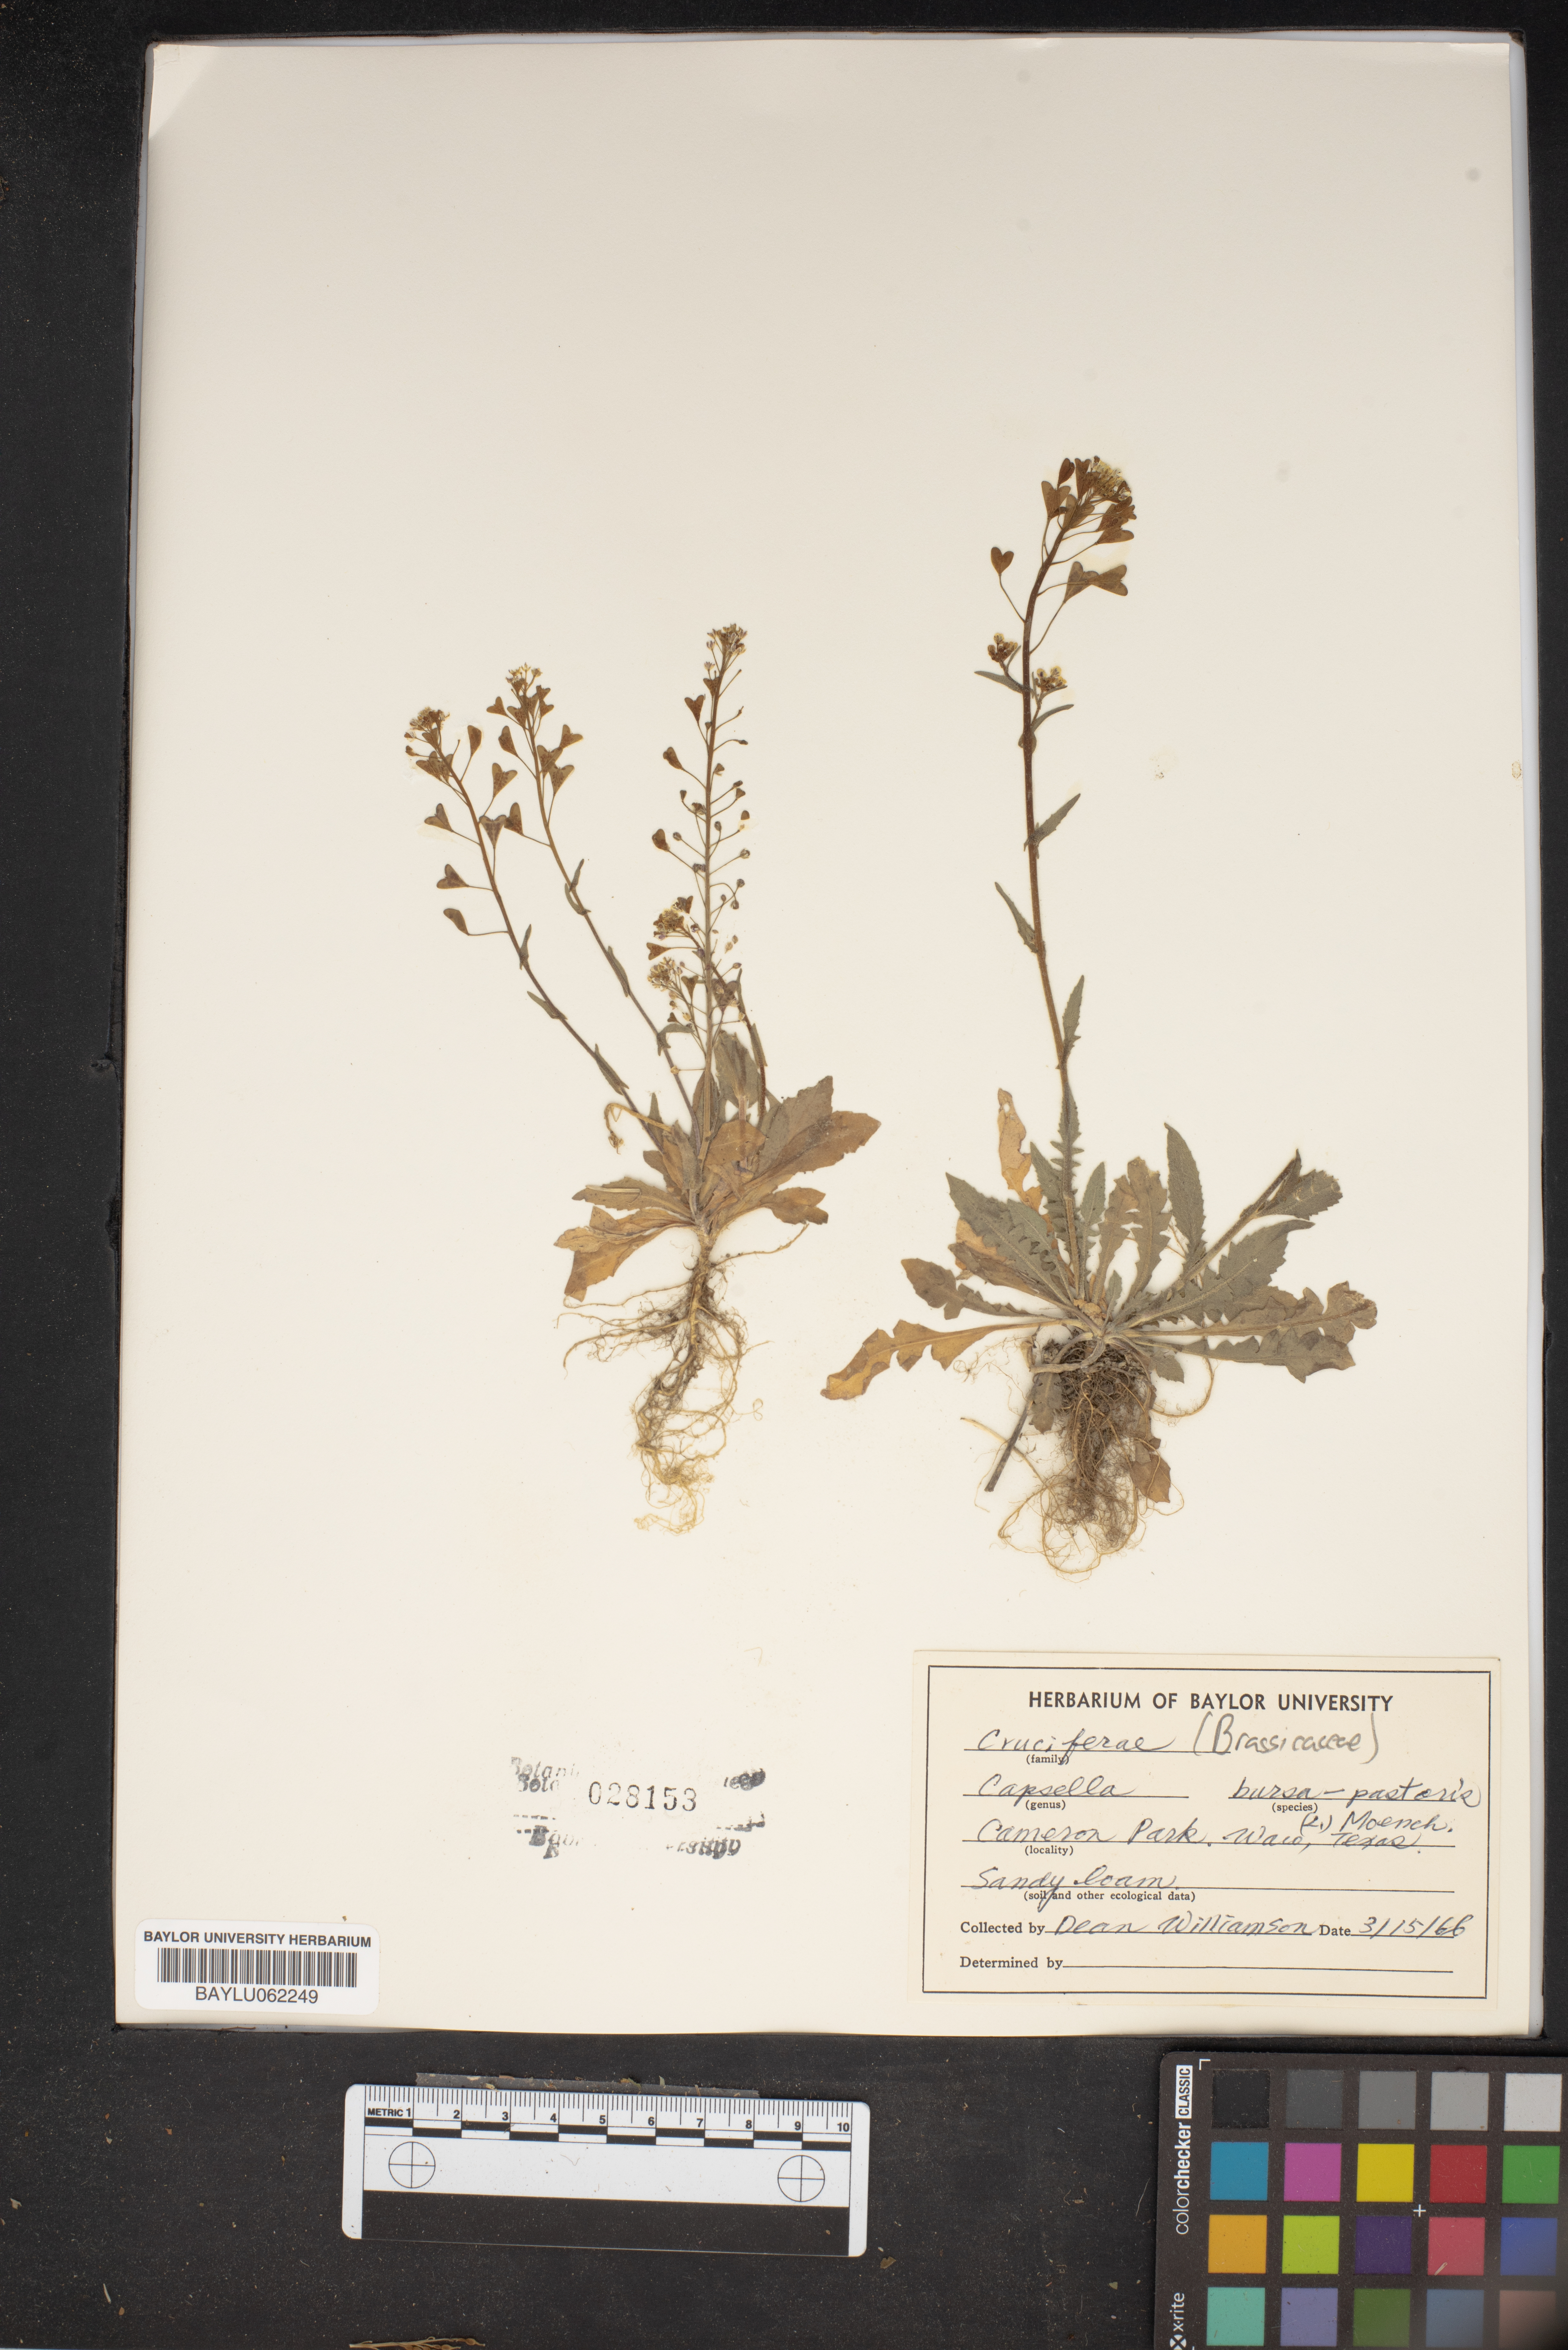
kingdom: Plantae
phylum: Tracheophyta
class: Magnoliopsida
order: Brassicales
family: Brassicaceae
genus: Capsella
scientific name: Capsella bursa-pastoris
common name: Shepherd's purse
